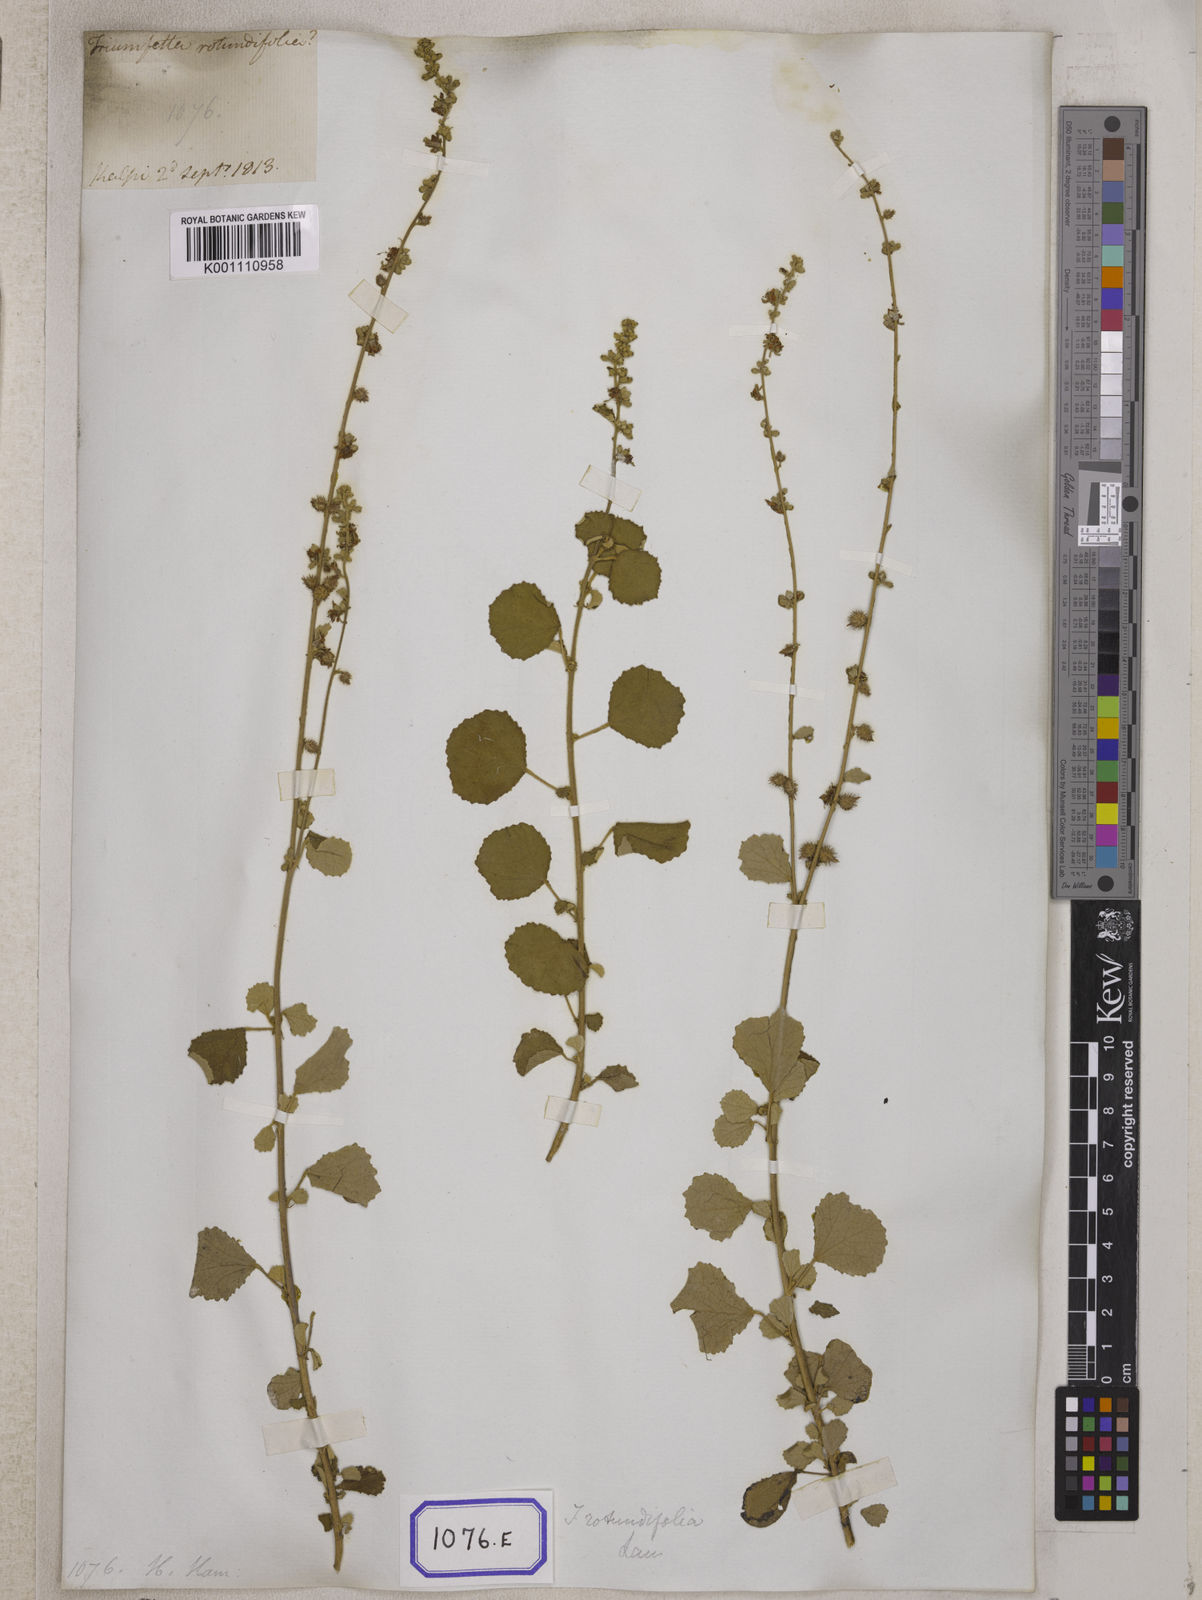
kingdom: Plantae
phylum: Tracheophyta
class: Magnoliopsida
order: Malvales
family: Malvaceae
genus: Triumfetta
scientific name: Triumfetta pilosa
